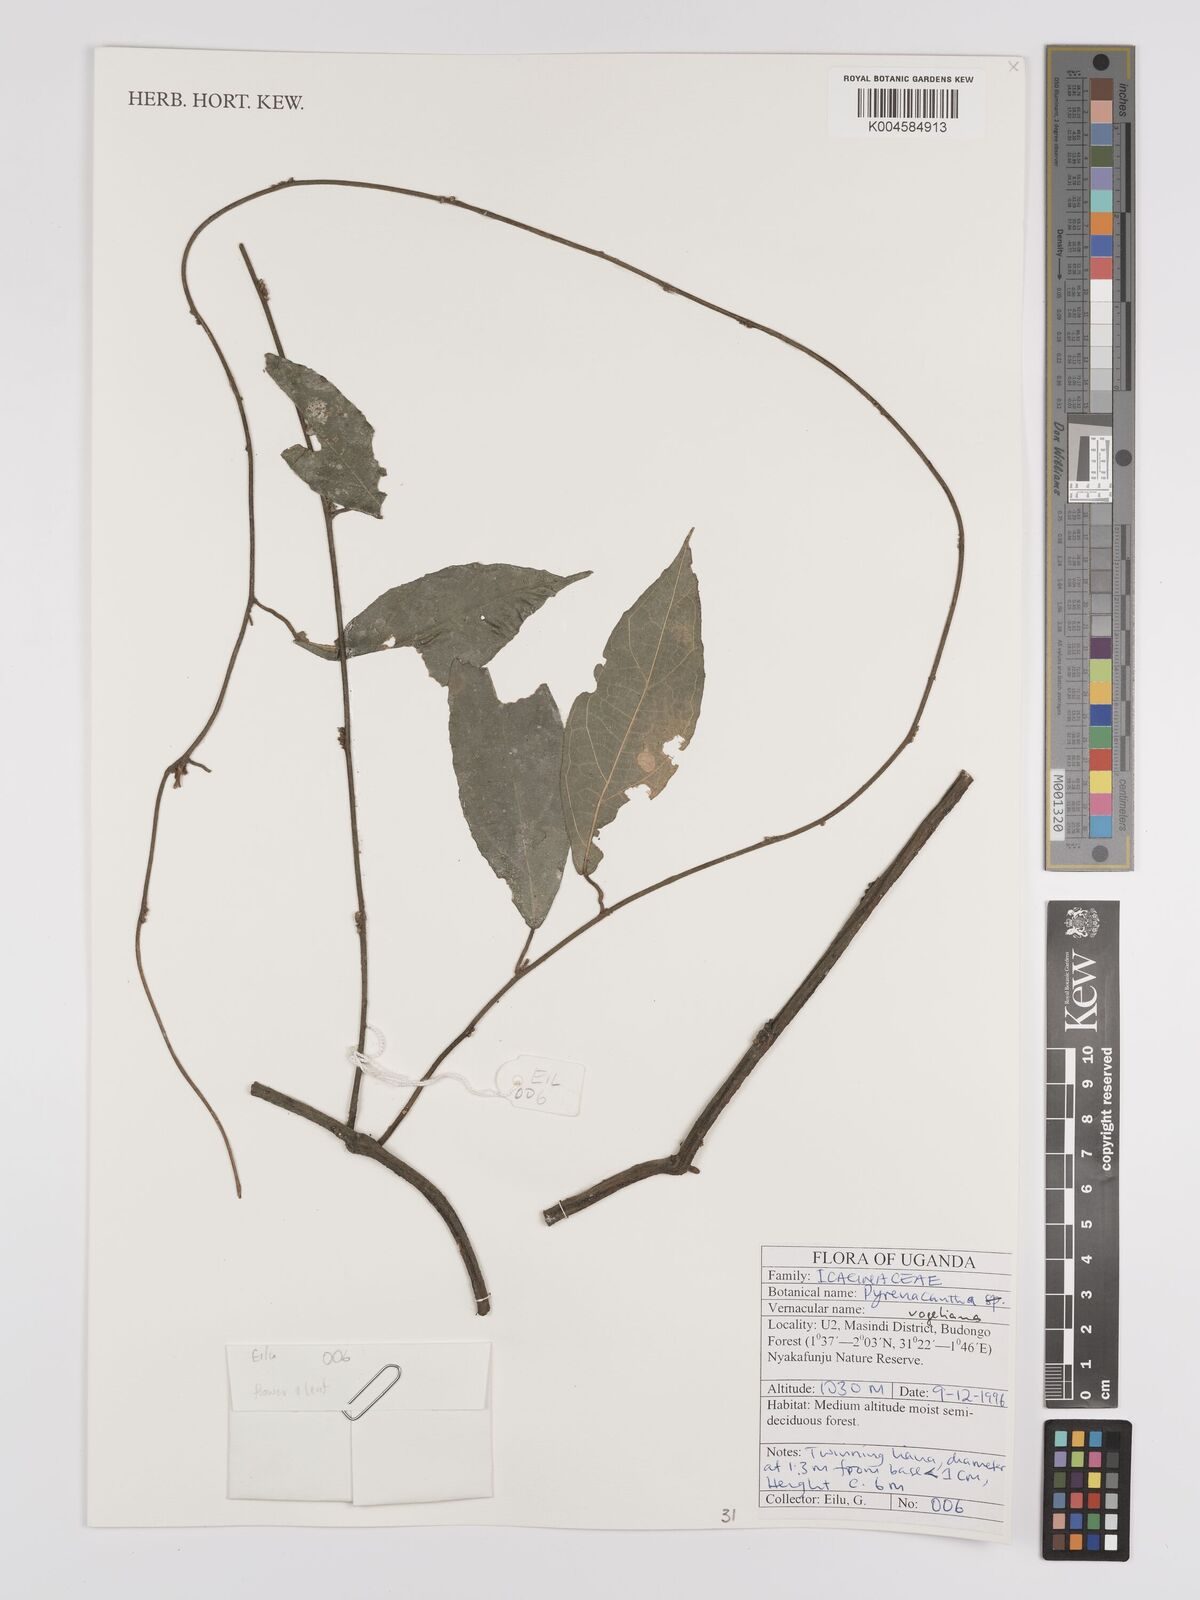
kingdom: Plantae
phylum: Tracheophyta
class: Magnoliopsida
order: Icacinales
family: Icacinaceae
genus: Pyrenacantha
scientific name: Pyrenacantha vogeliana
